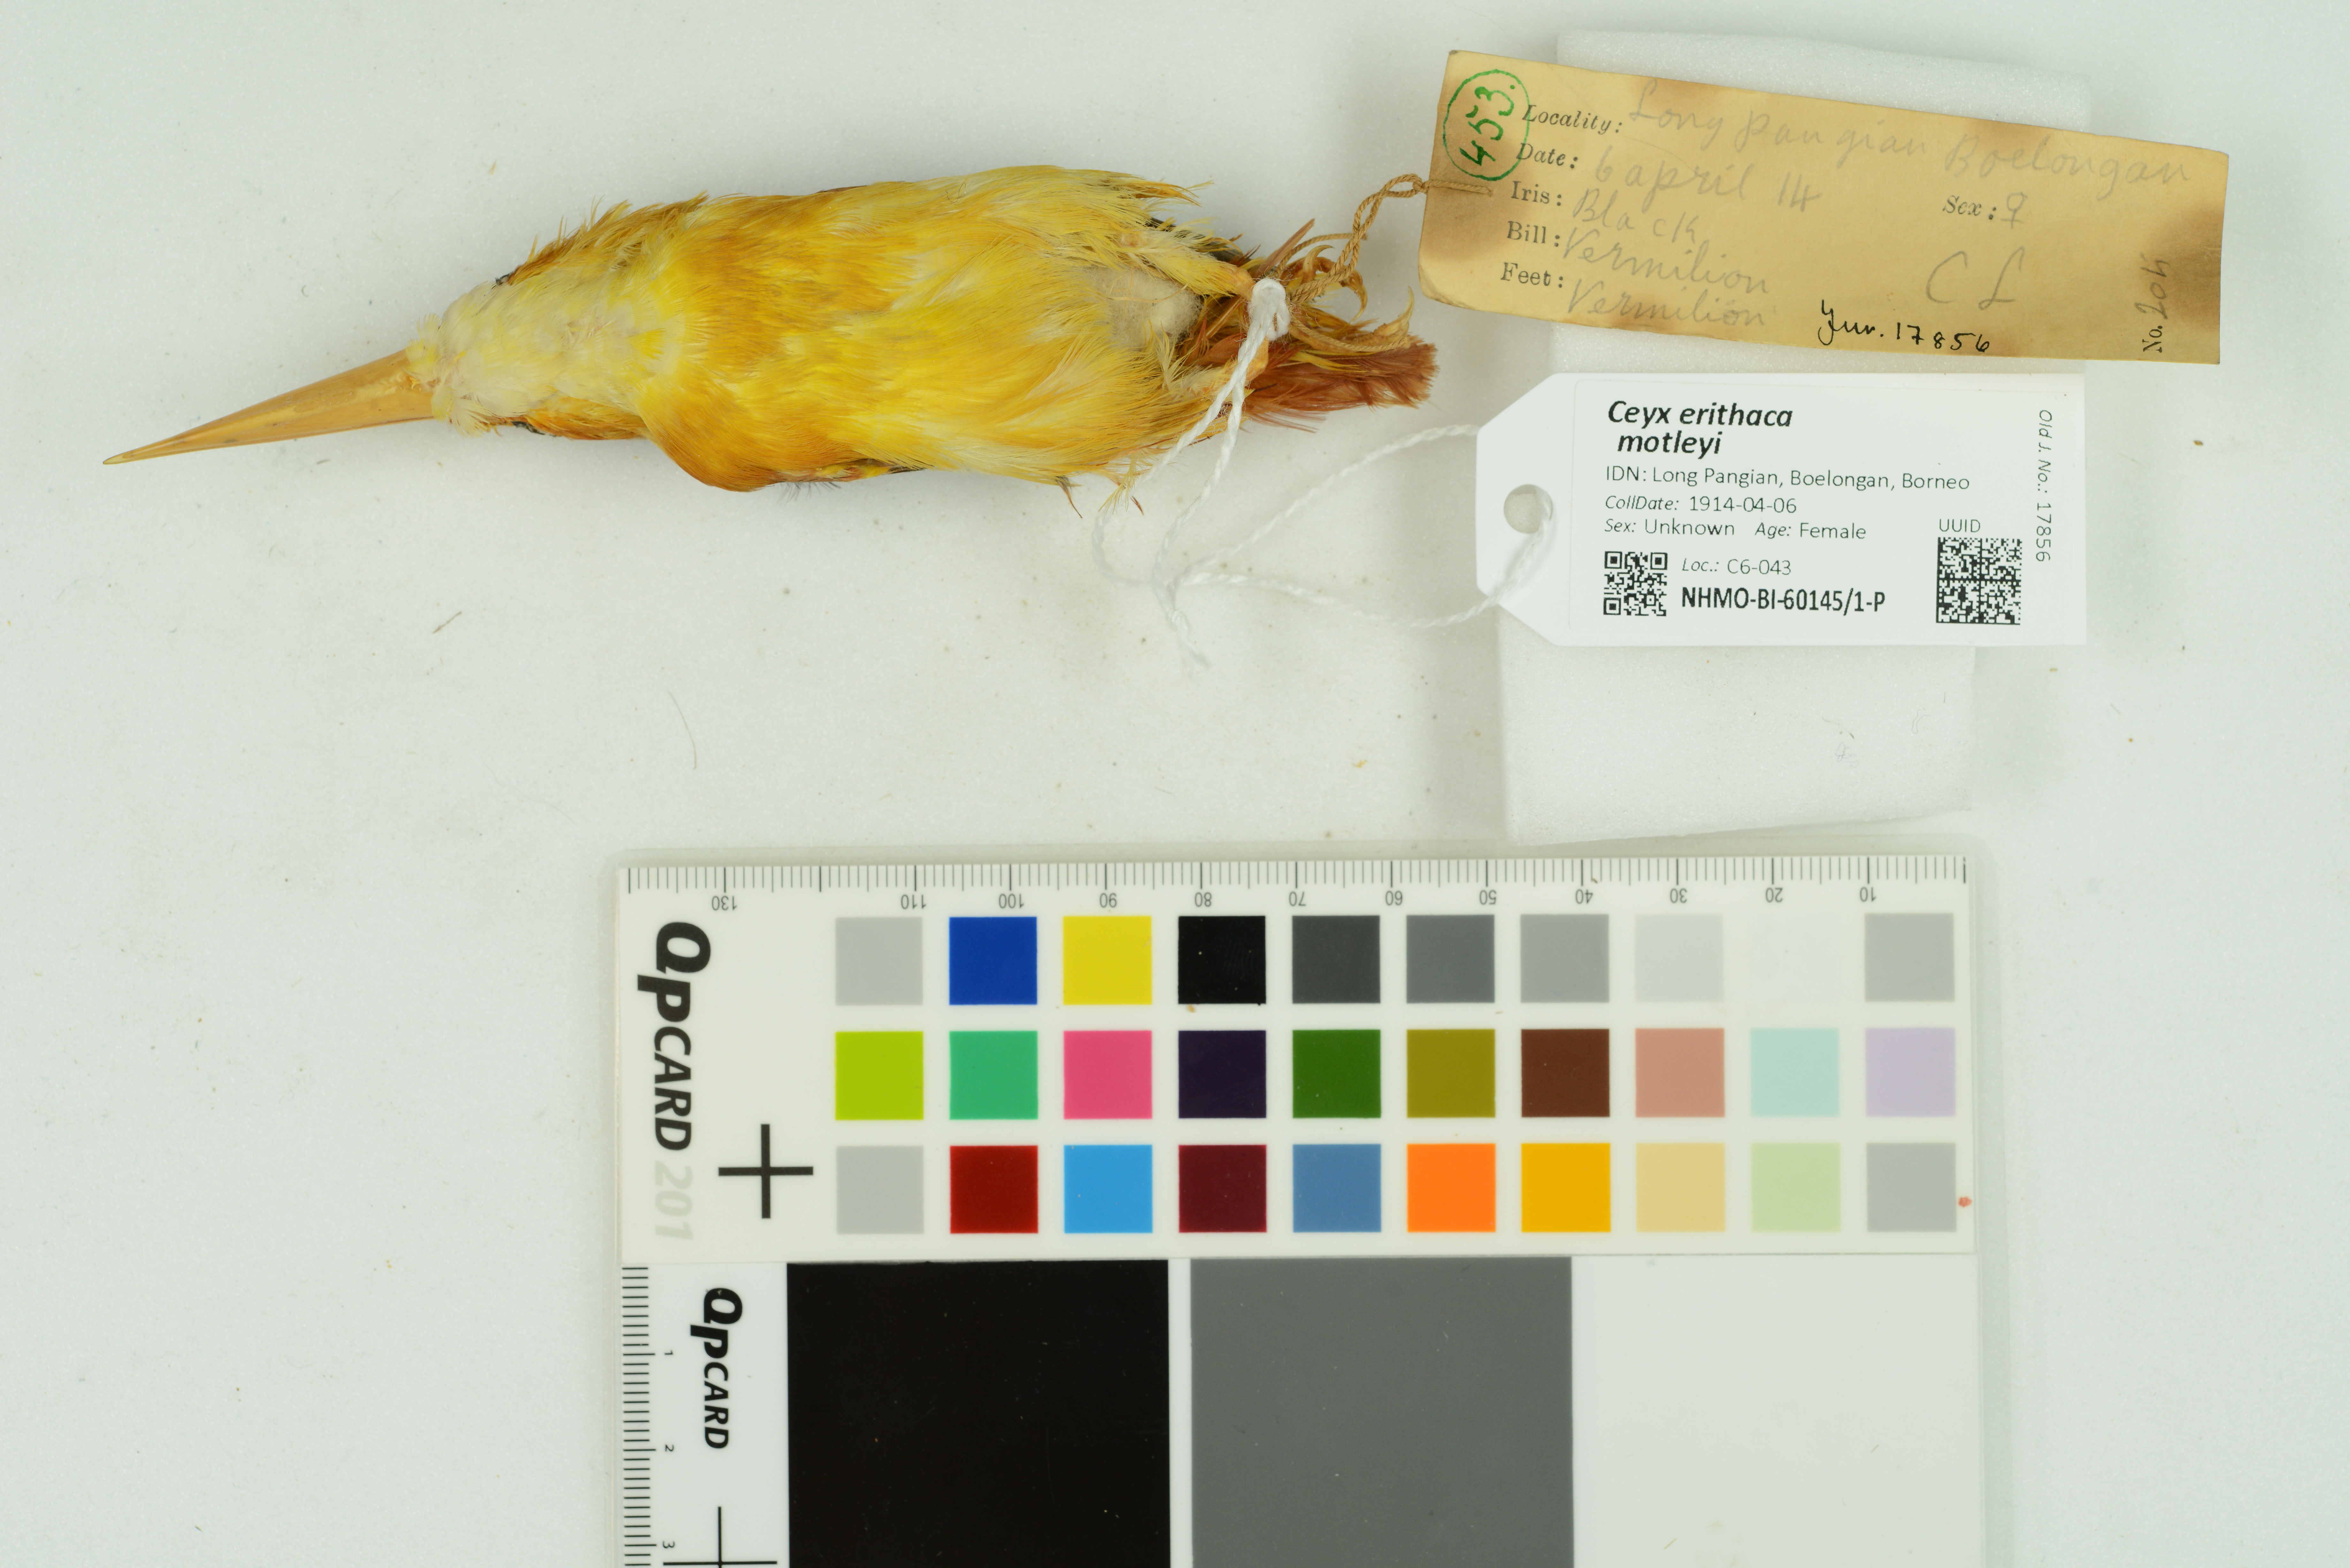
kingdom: Animalia
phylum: Chordata
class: Aves
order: Coraciiformes
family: Alcedinidae
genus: Ceyx
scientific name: Ceyx erithaca
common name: Oriental dwarf kingfisher
